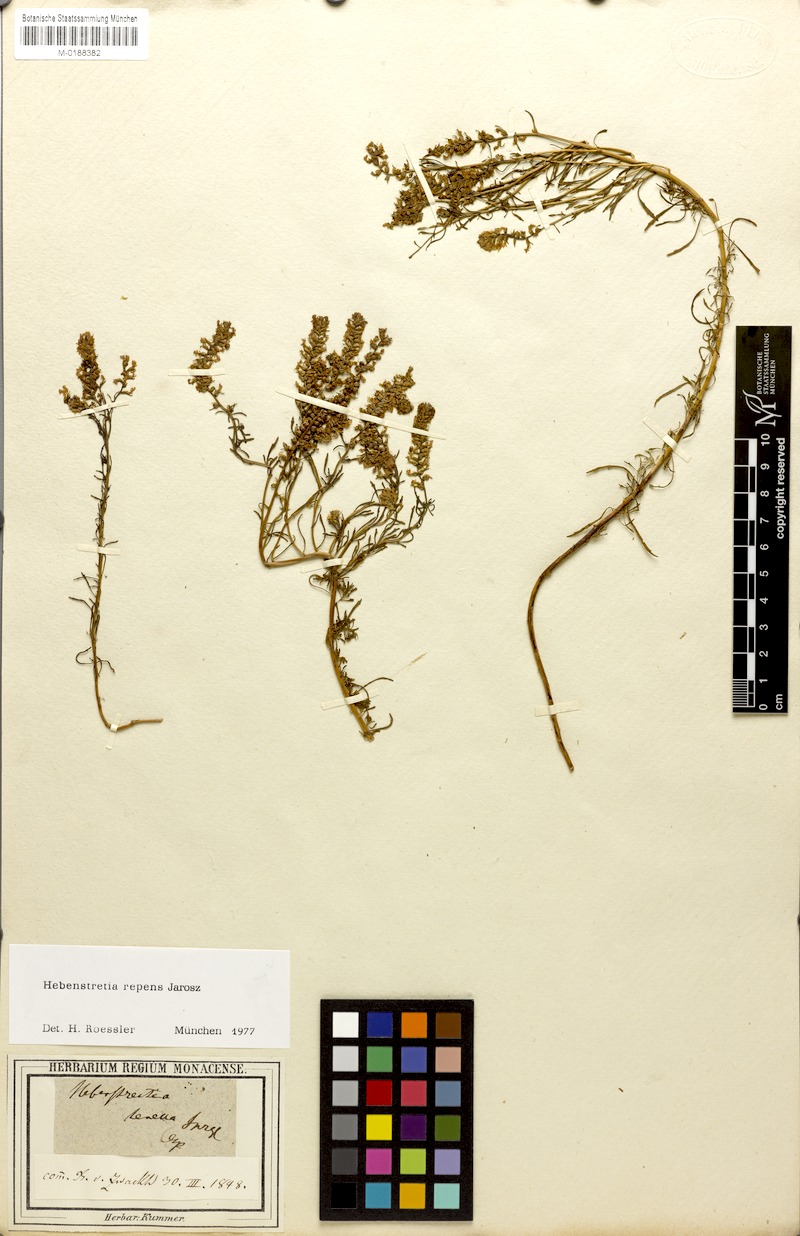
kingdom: Plantae
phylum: Tracheophyta
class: Magnoliopsida
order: Lamiales
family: Scrophulariaceae
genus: Hebenstretia
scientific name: Hebenstretia repens
